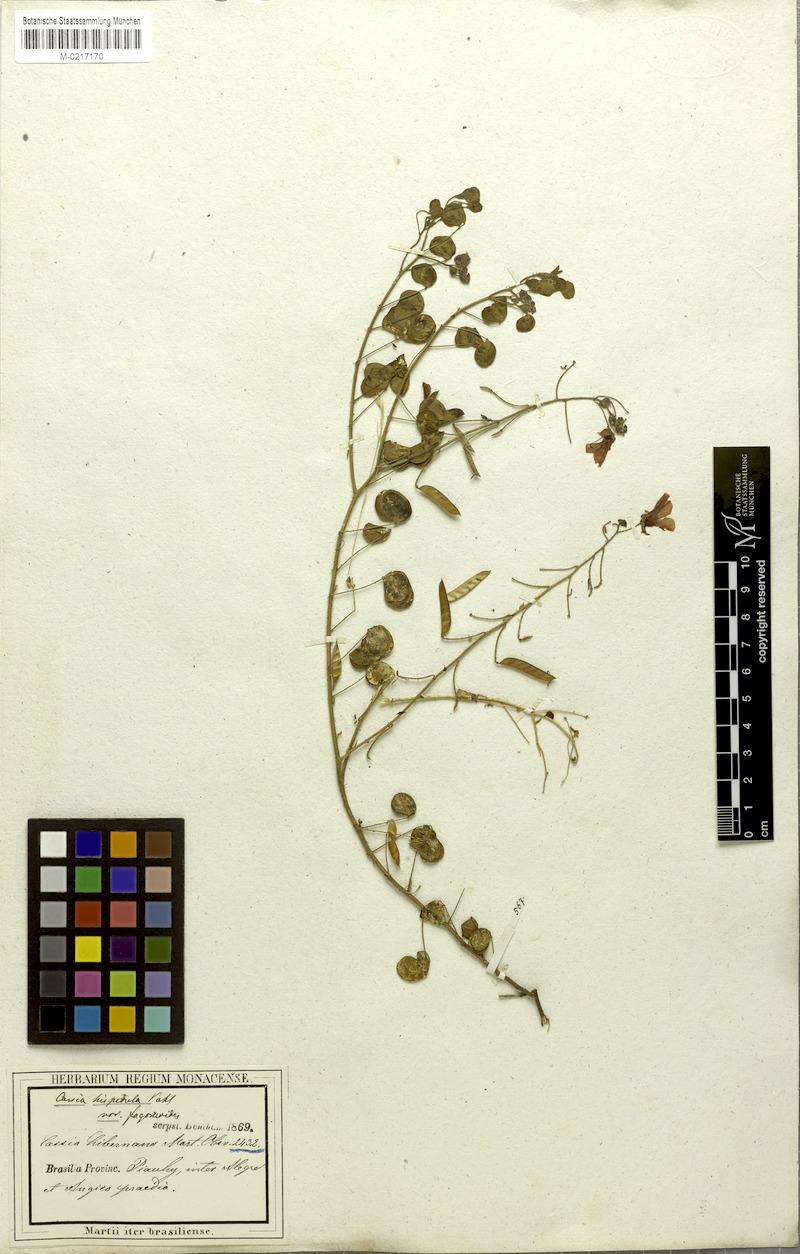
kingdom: Plantae
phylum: Tracheophyta
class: Magnoliopsida
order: Fabales
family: Fabaceae
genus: Chamaecrista
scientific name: Chamaecrista fagonioides
